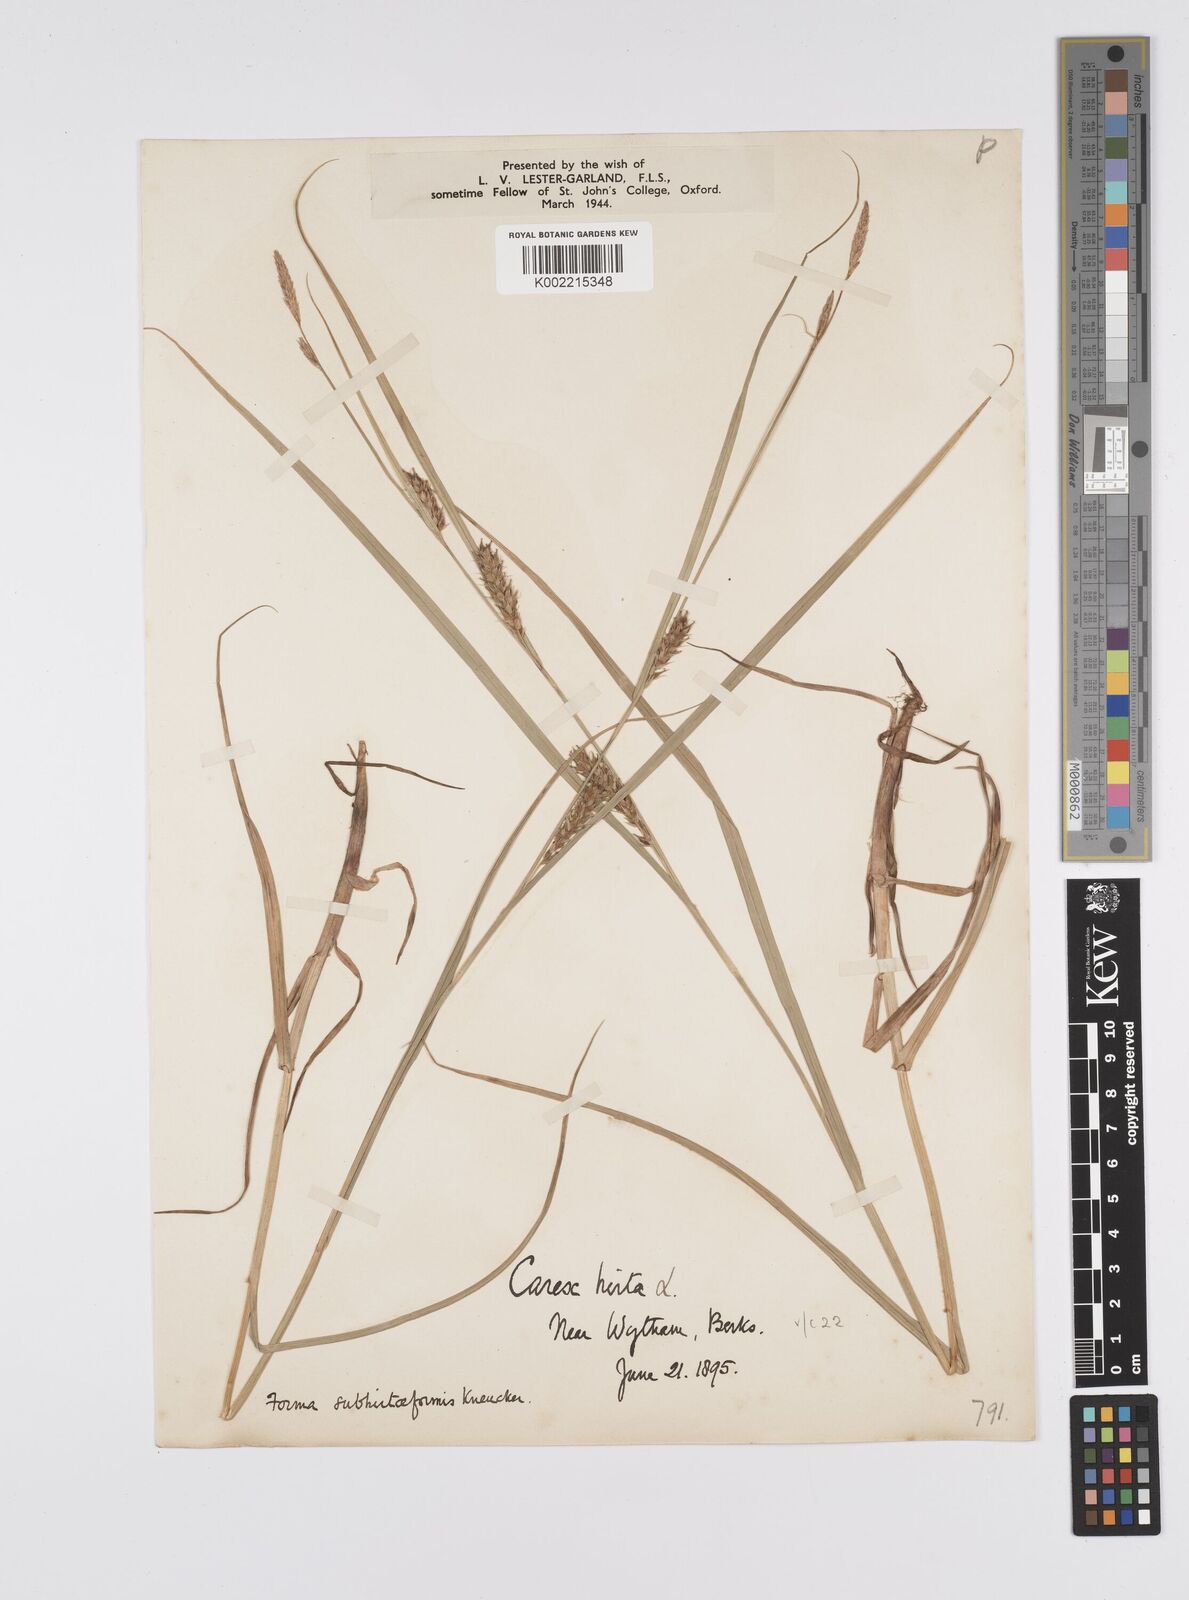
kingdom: Plantae
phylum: Tracheophyta
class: Liliopsida
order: Poales
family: Cyperaceae
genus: Carex
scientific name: Carex hirta
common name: Hairy sedge
